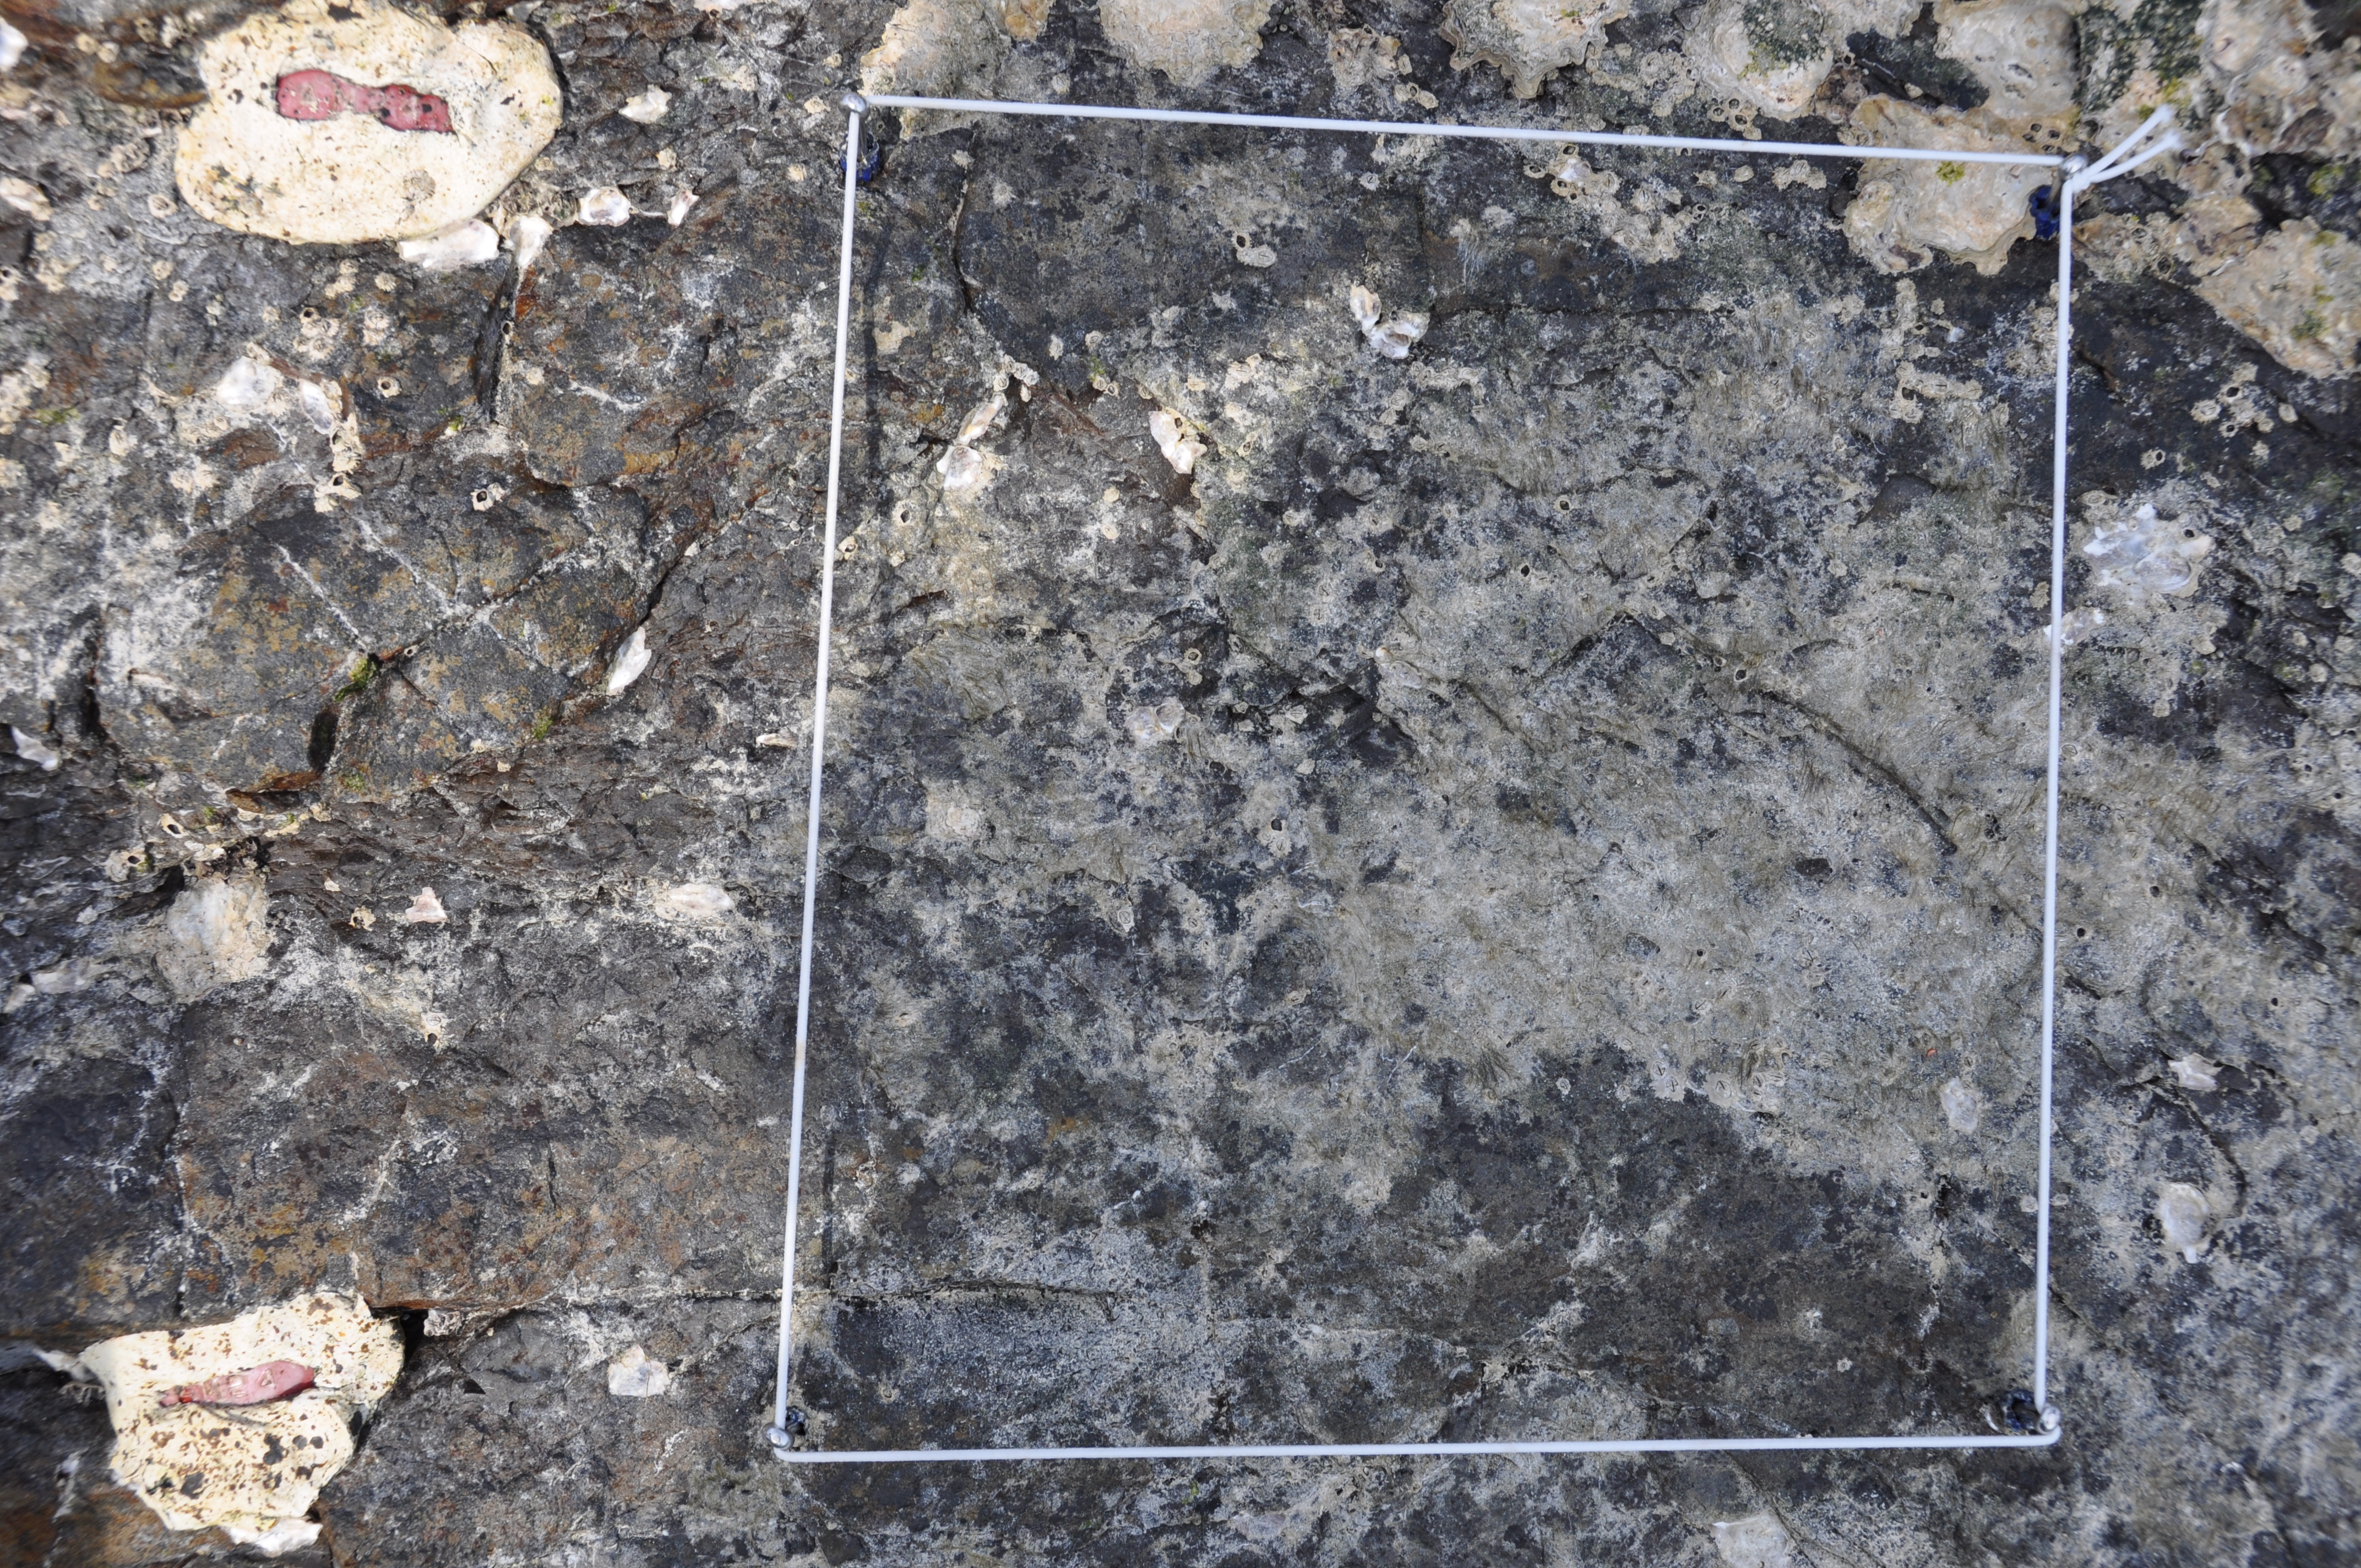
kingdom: Animalia
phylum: Arthropoda
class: Maxillopoda
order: Sessilia
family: Chthamalidae
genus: Chthamalus
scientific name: Chthamalus challengeri
